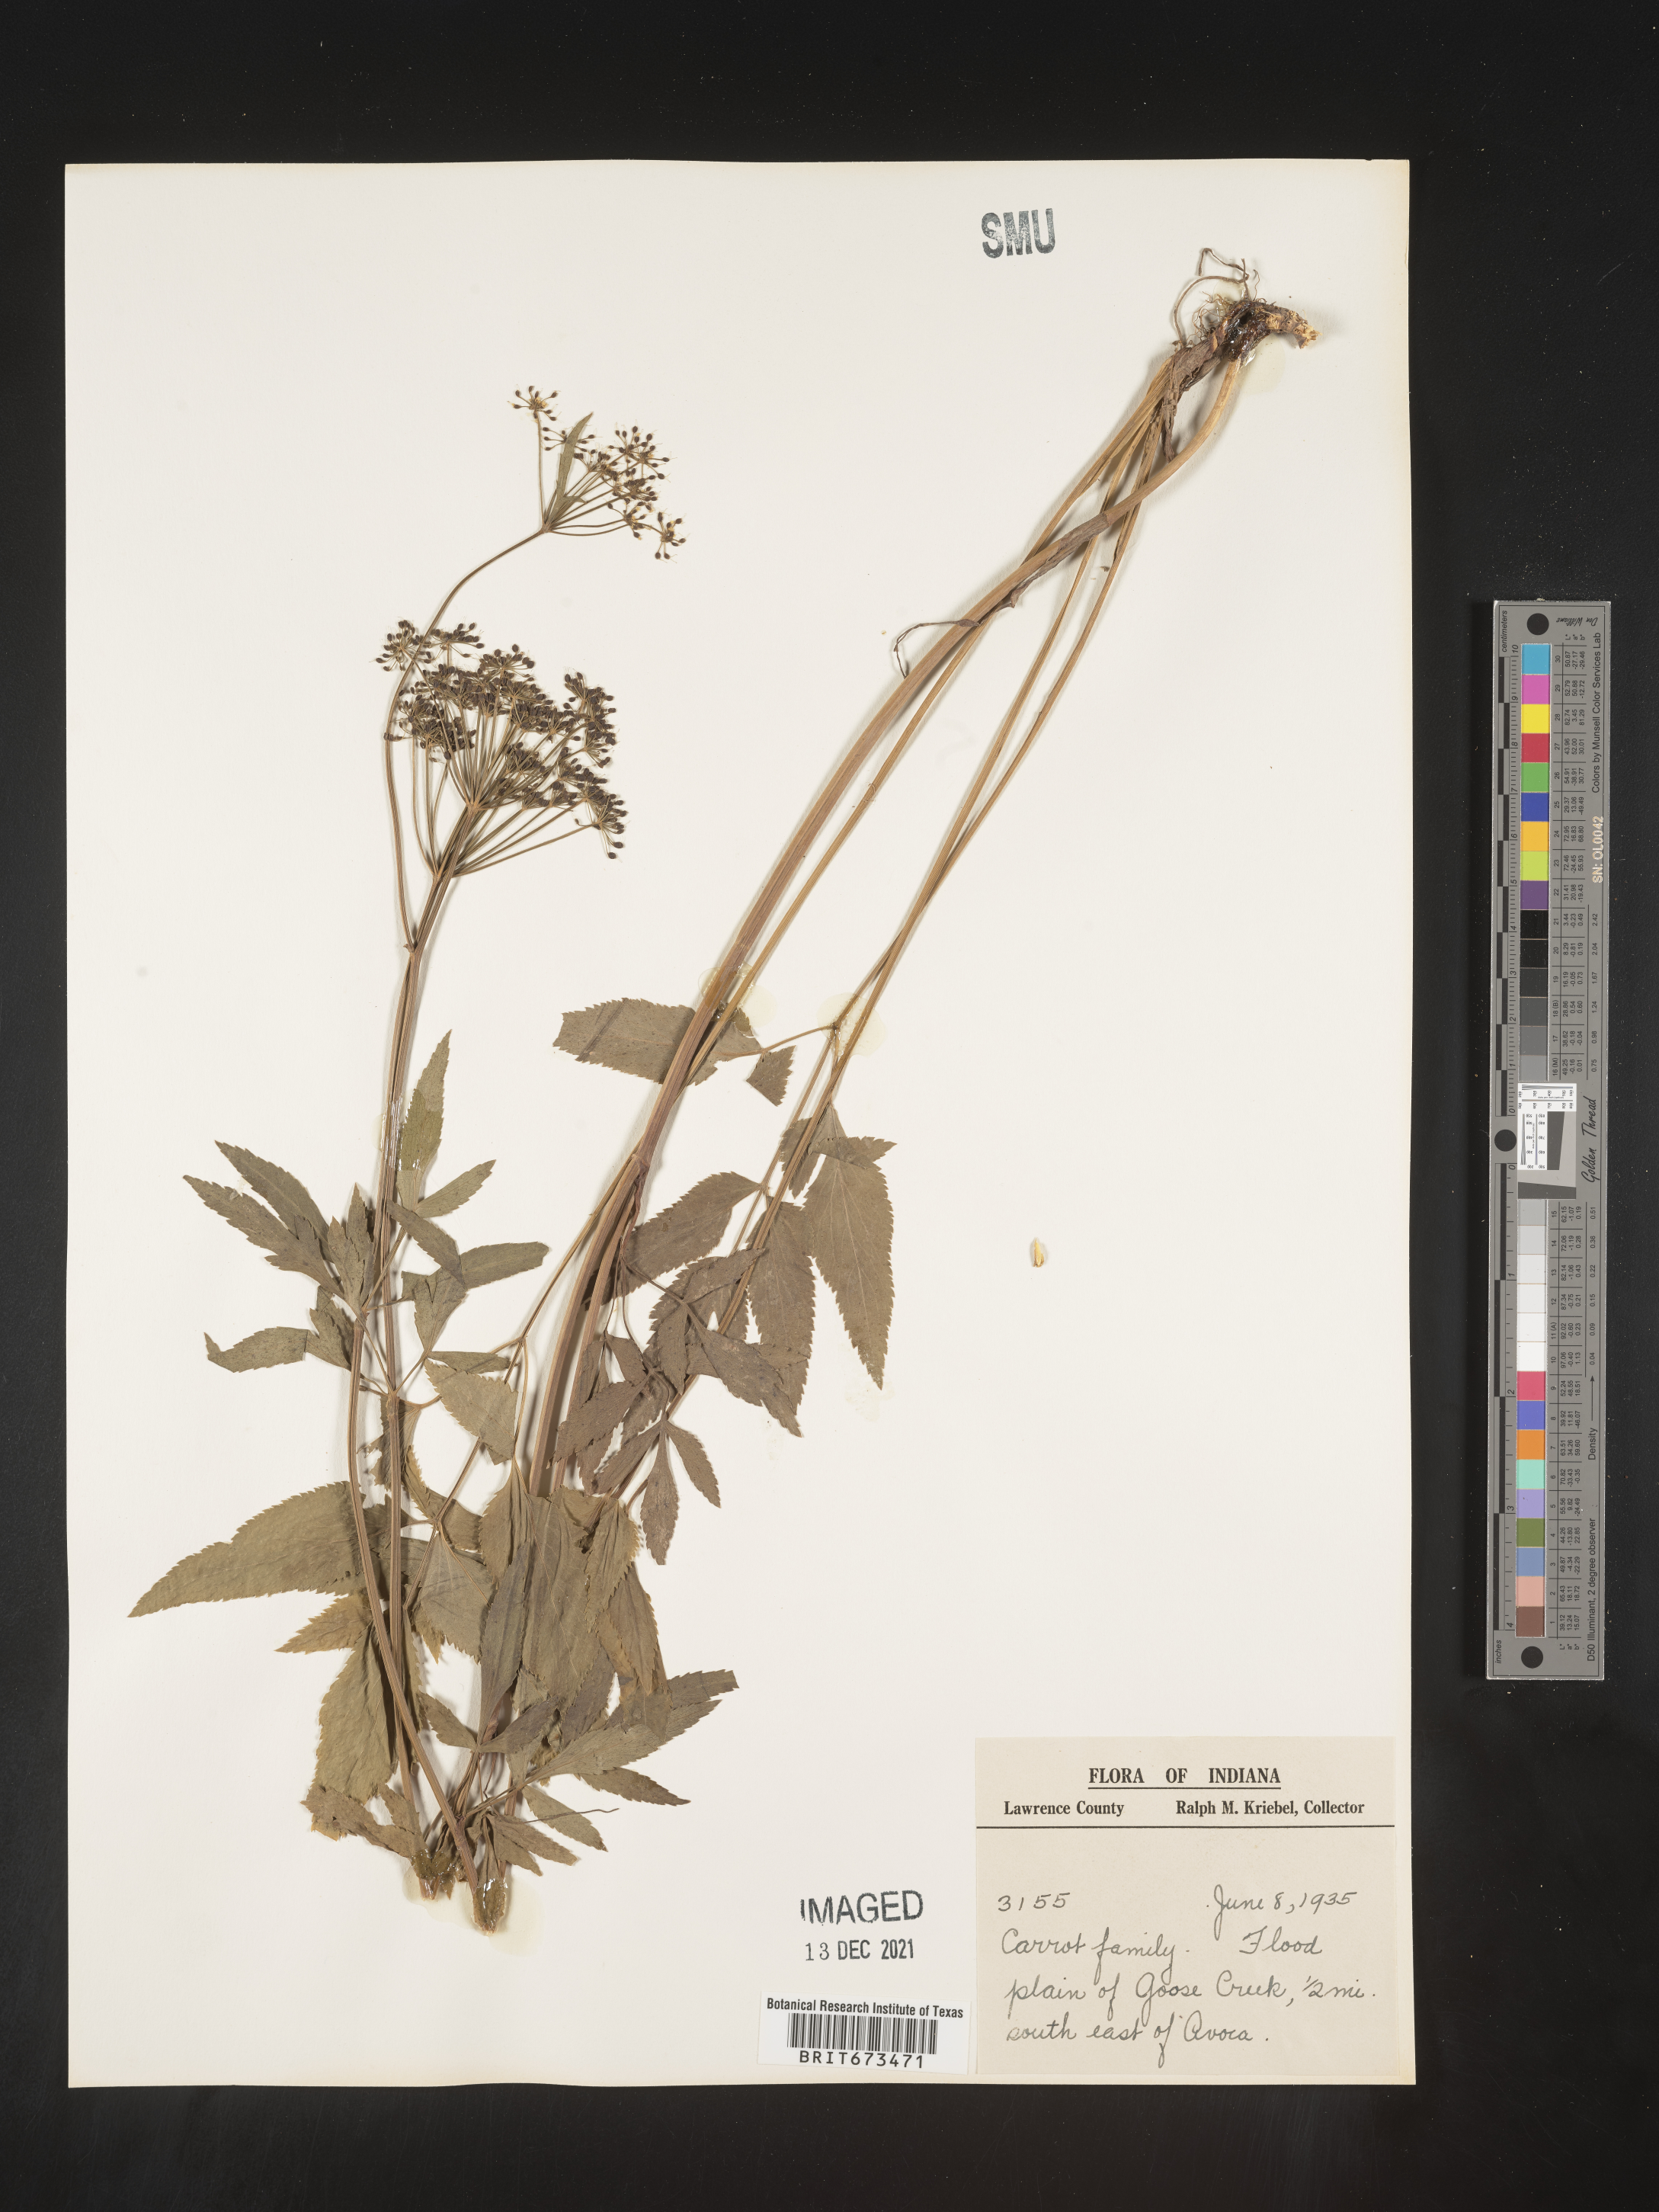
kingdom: Plantae
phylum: Tracheophyta
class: Magnoliopsida
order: Apiales
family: Apiaceae
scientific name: Apiaceae
